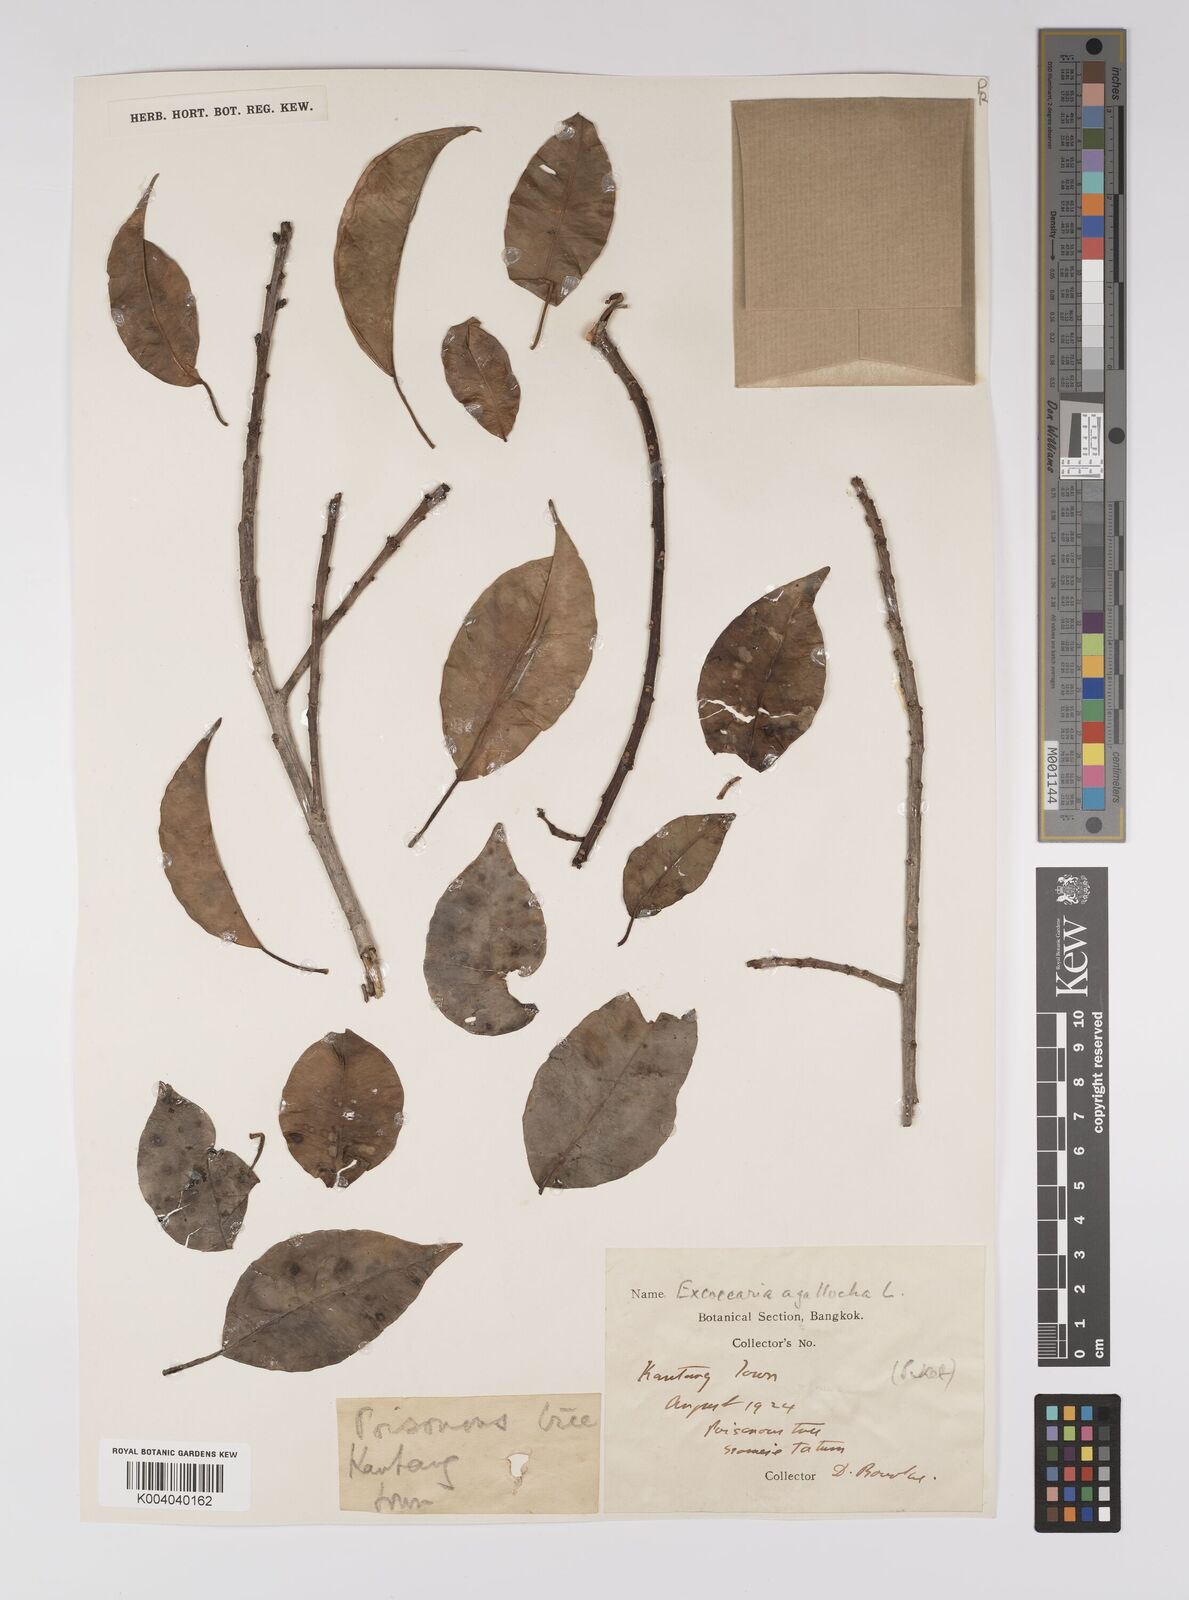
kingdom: Plantae
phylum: Tracheophyta
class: Magnoliopsida
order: Malpighiales
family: Euphorbiaceae
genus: Excoecaria
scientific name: Excoecaria agallocha
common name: River poisontree
